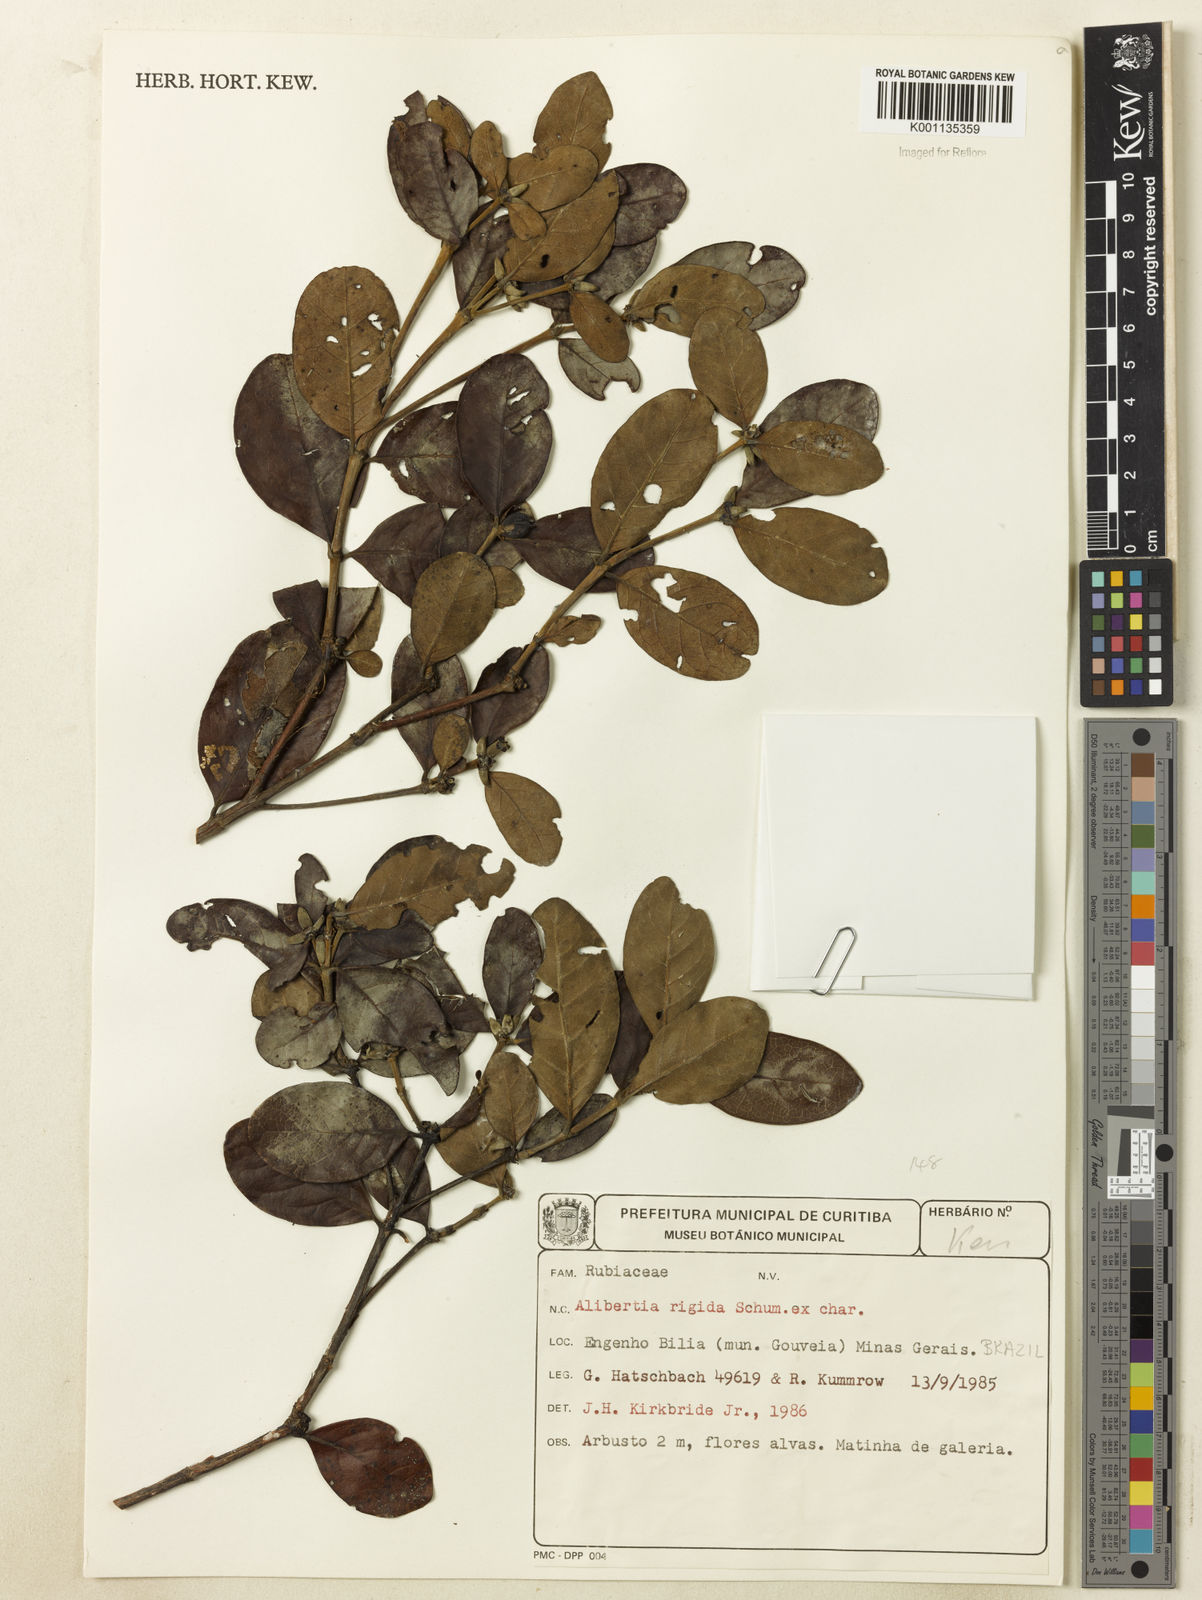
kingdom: Plantae
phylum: Tracheophyta
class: Magnoliopsida
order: Gentianales
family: Rubiaceae
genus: Cordiera
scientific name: Cordiera elliptica
